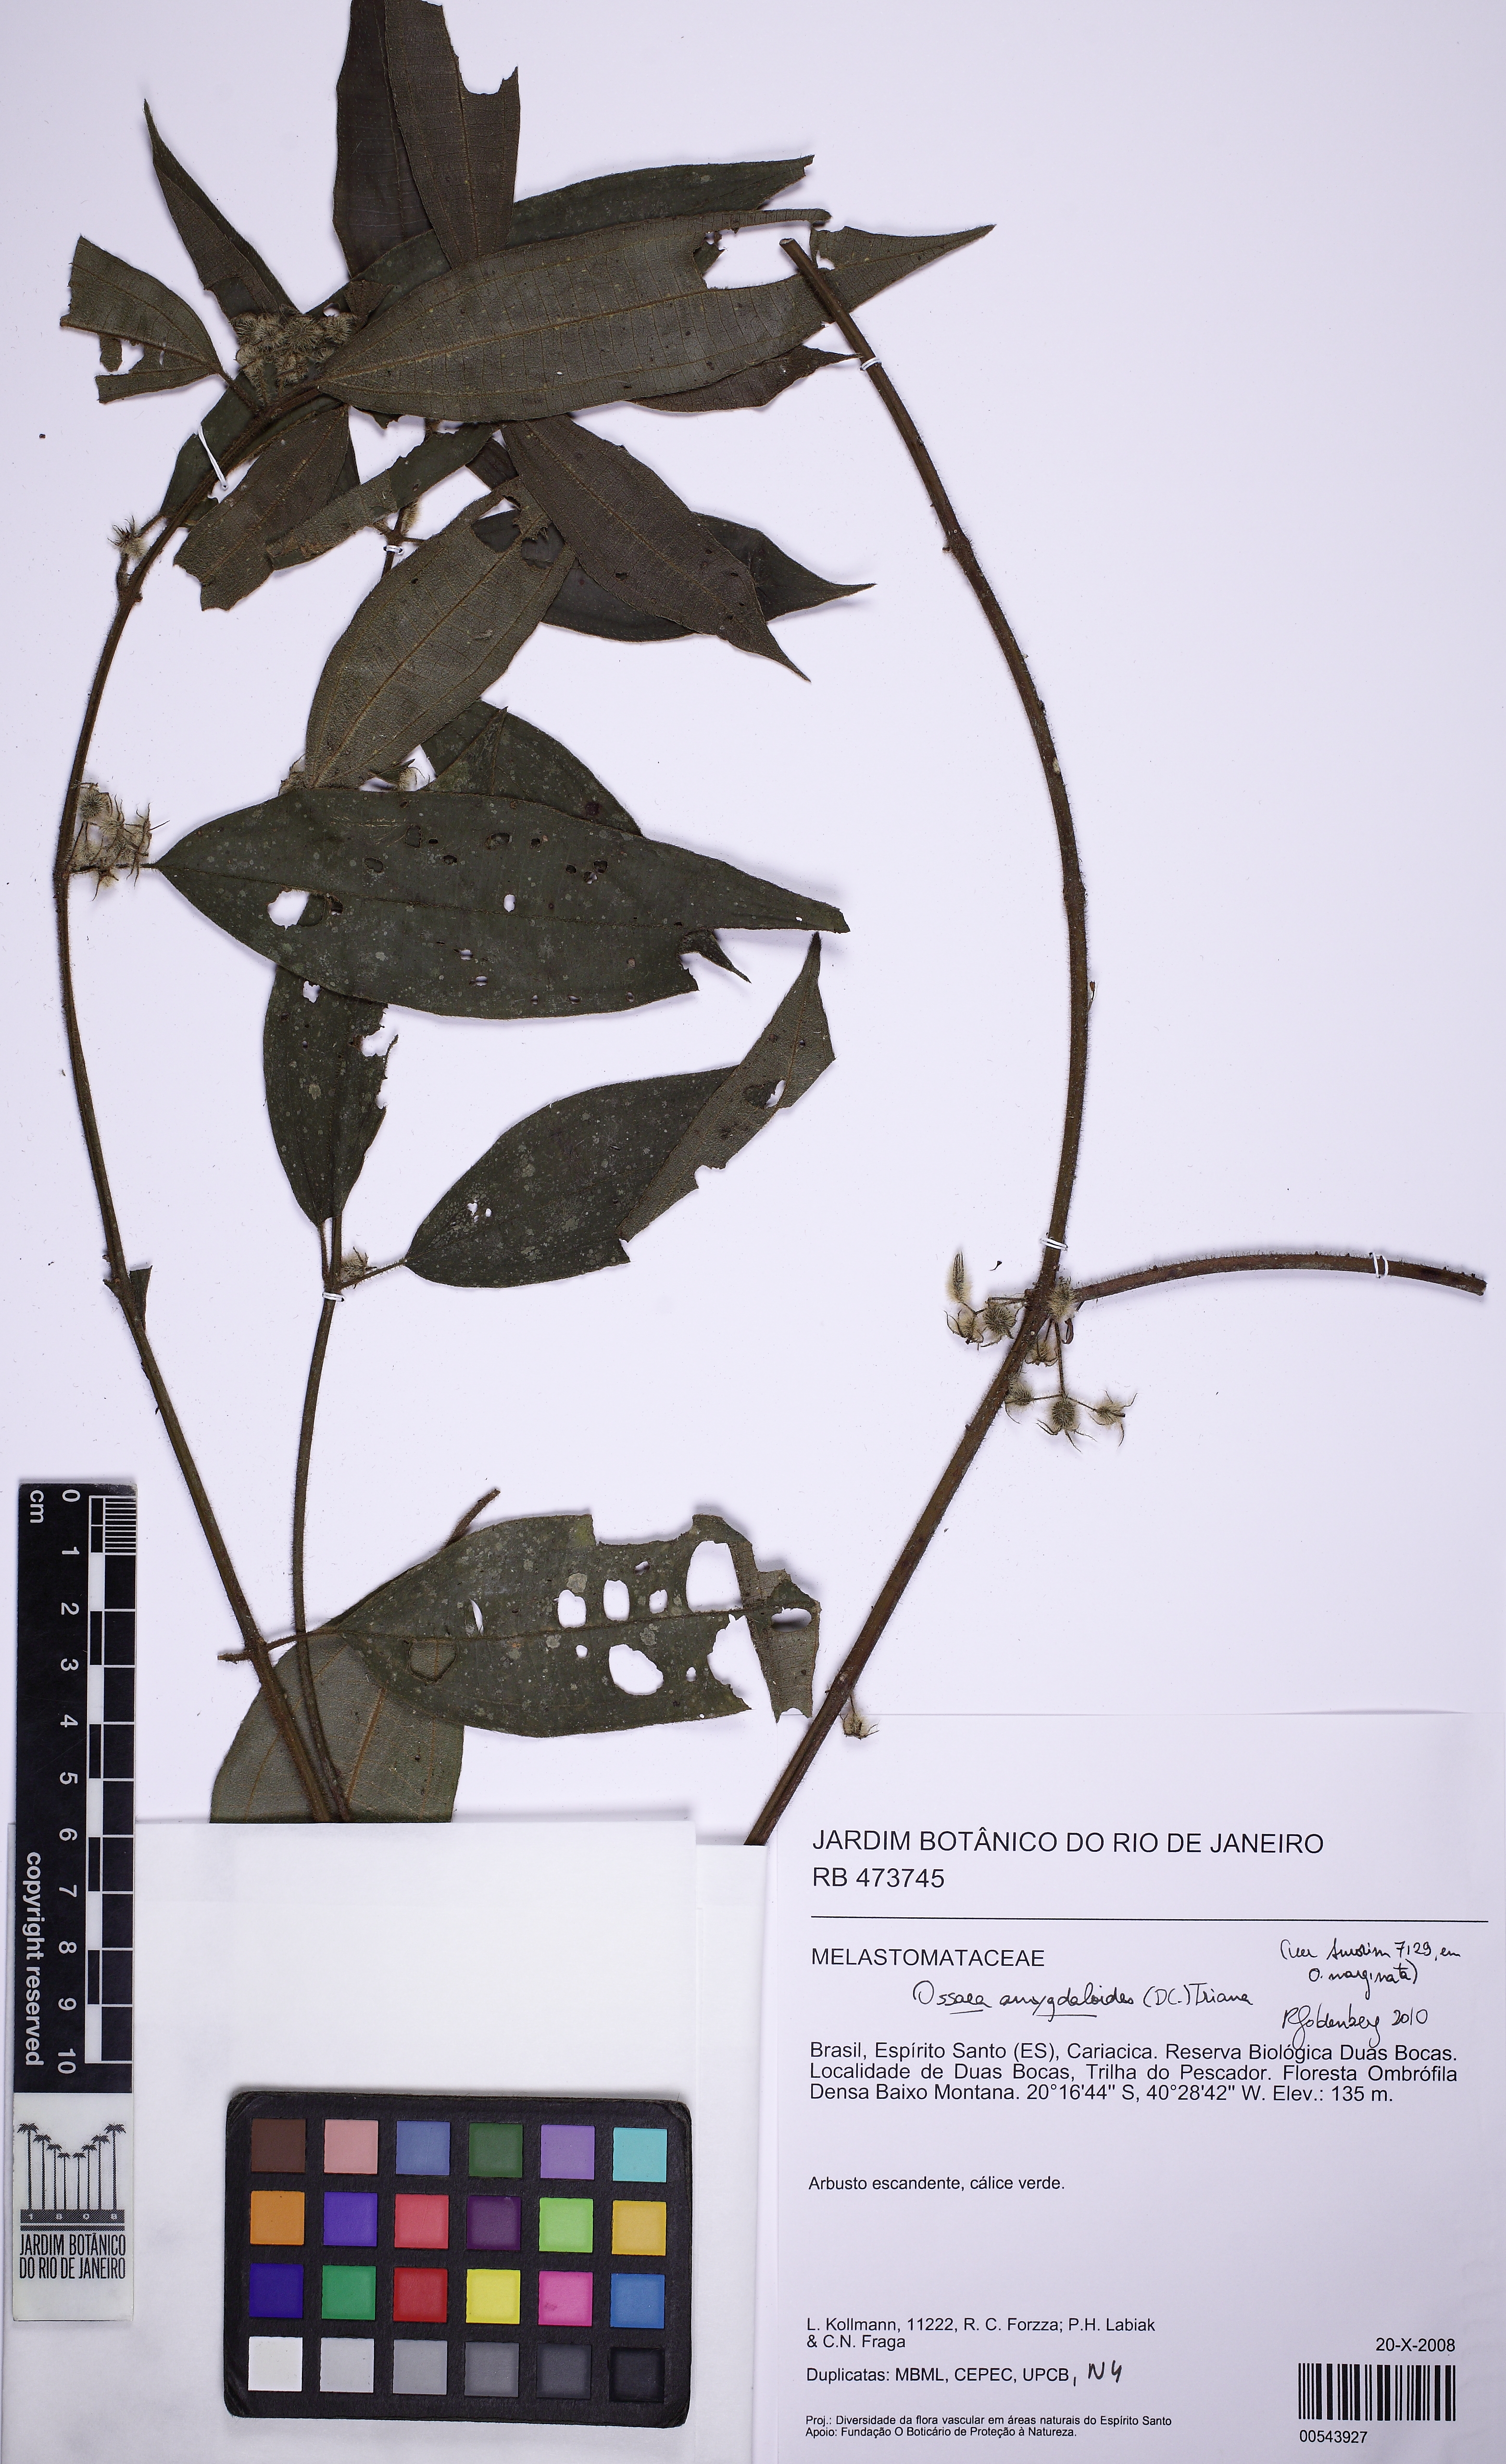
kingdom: Plantae
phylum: Tracheophyta
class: Magnoliopsida
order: Myrtales
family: Melastomataceae
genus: Miconia
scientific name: Miconia amygdaloides
